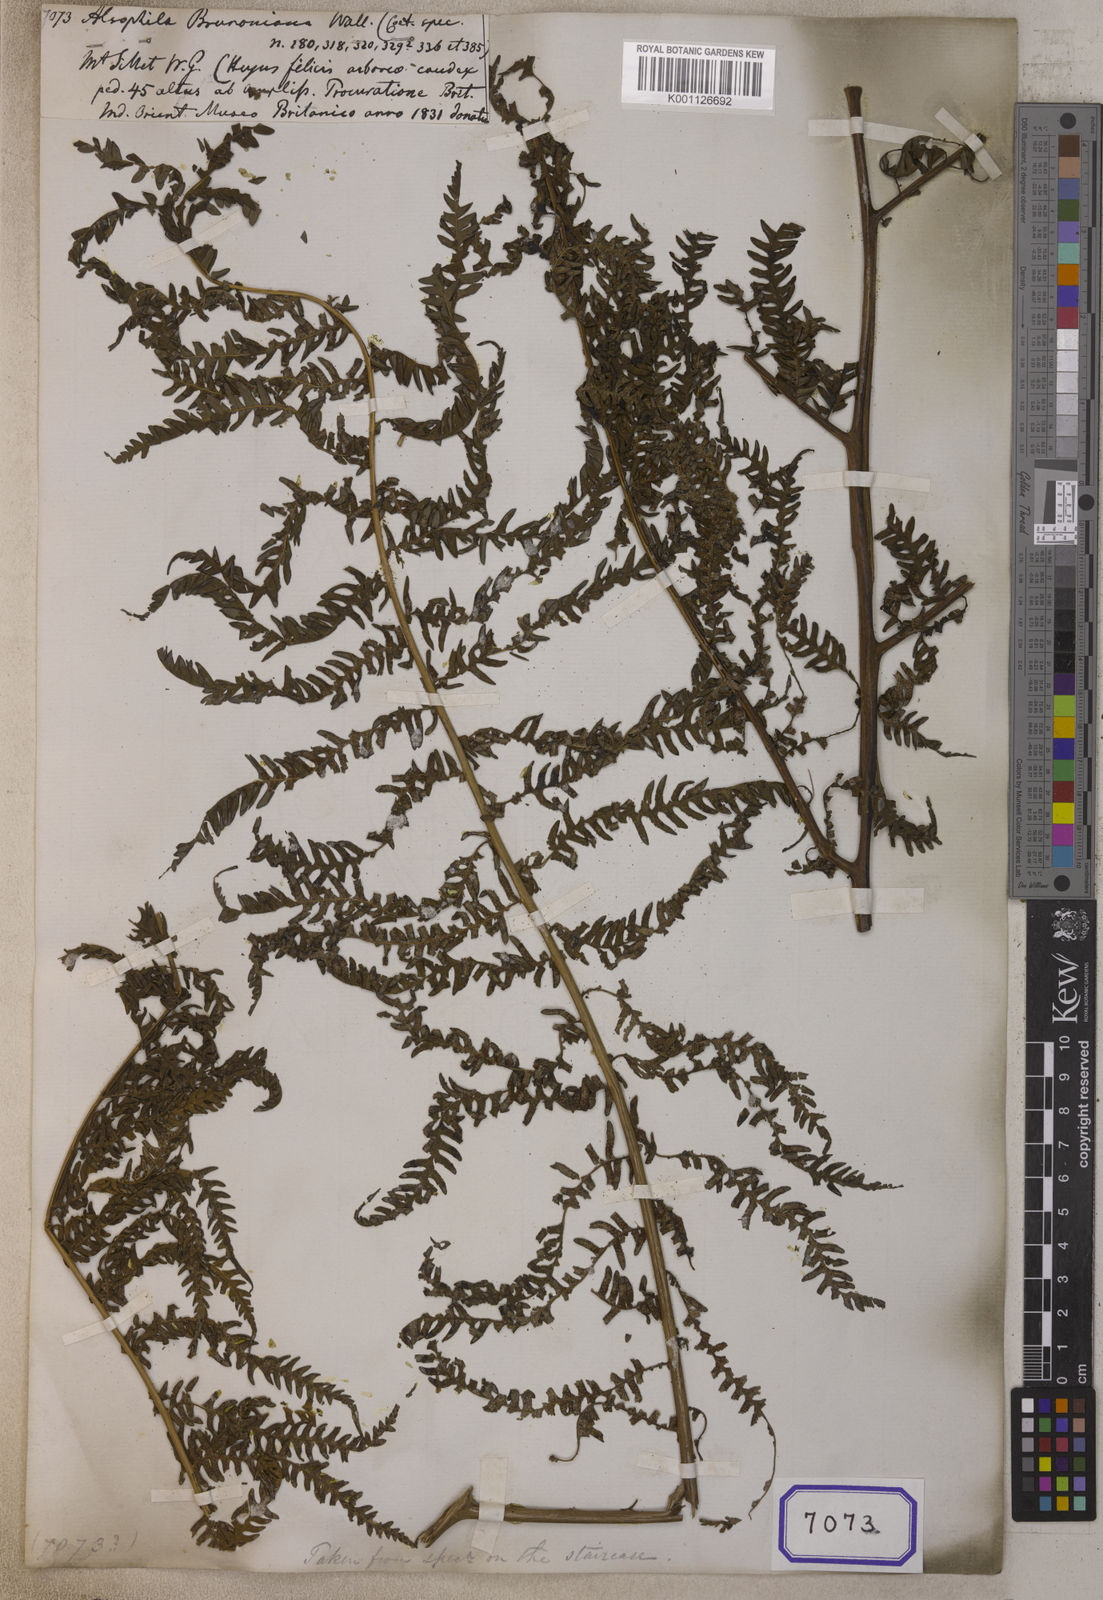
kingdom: Plantae
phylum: Tracheophyta
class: Polypodiopsida
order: Cyatheales
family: Cyatheaceae
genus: Sphaeropteris
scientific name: Sphaeropteris brunoniana
